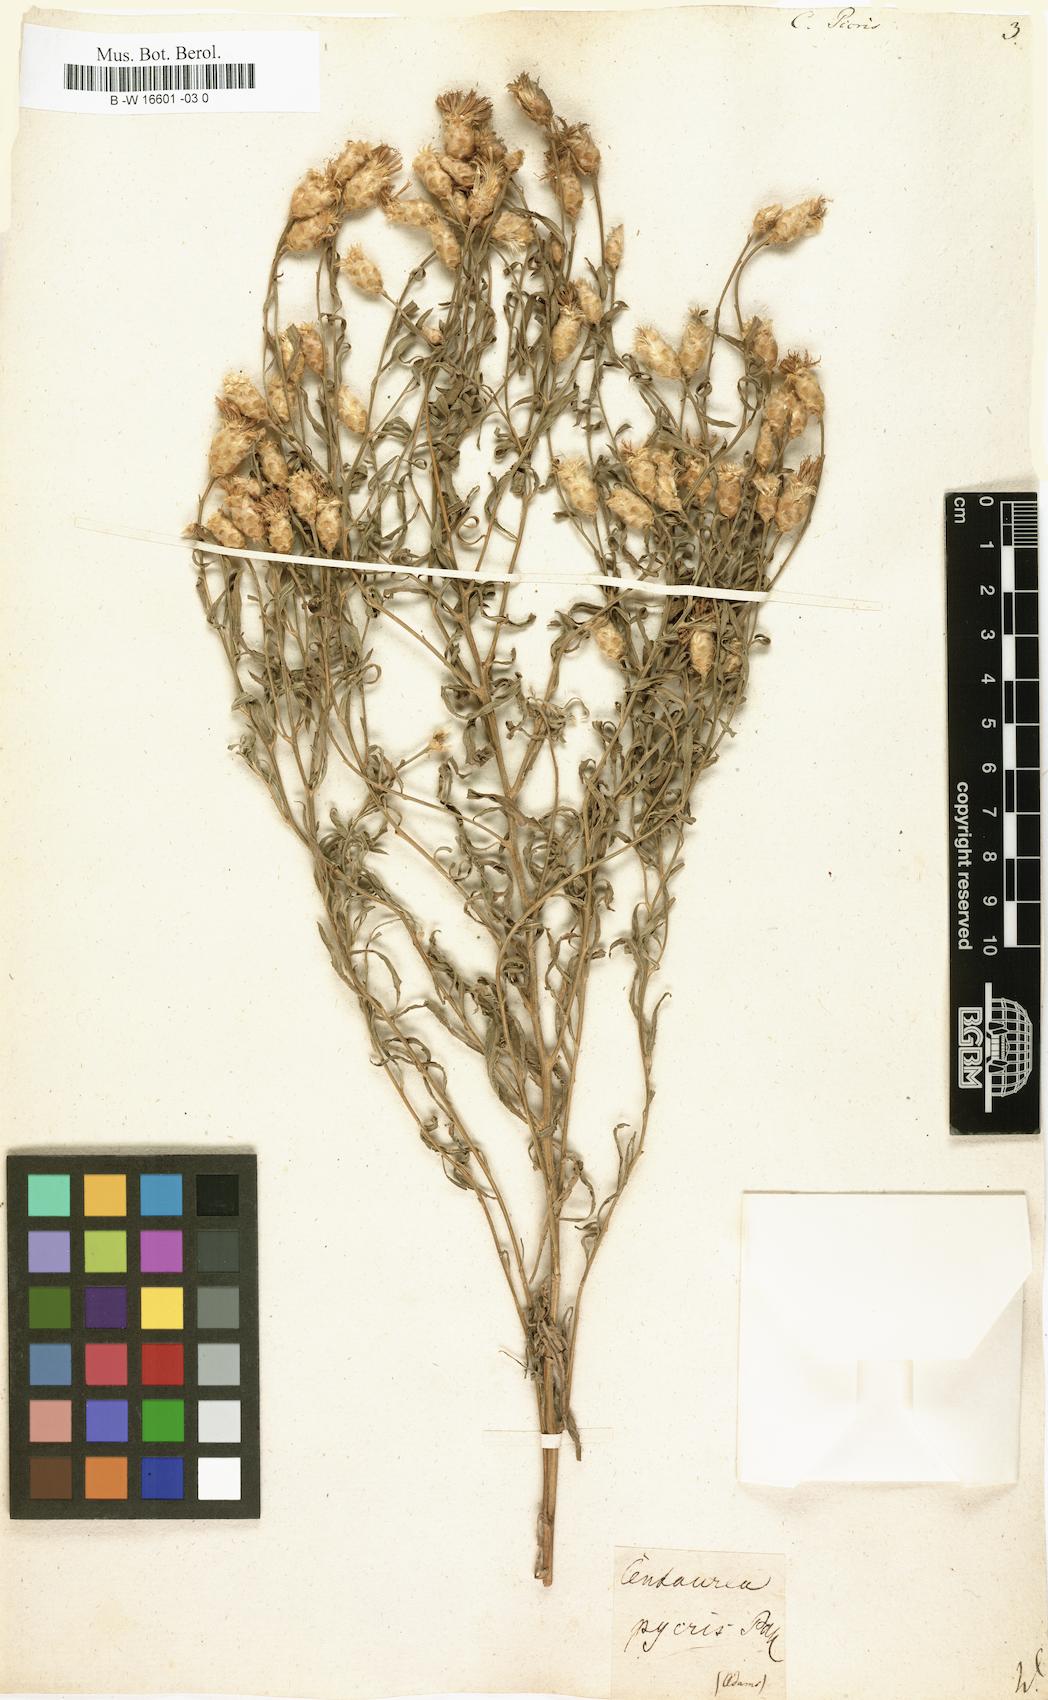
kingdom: Plantae
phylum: Tracheophyta
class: Magnoliopsida
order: Asterales
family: Asteraceae
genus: Leuzea
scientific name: Leuzea repens
